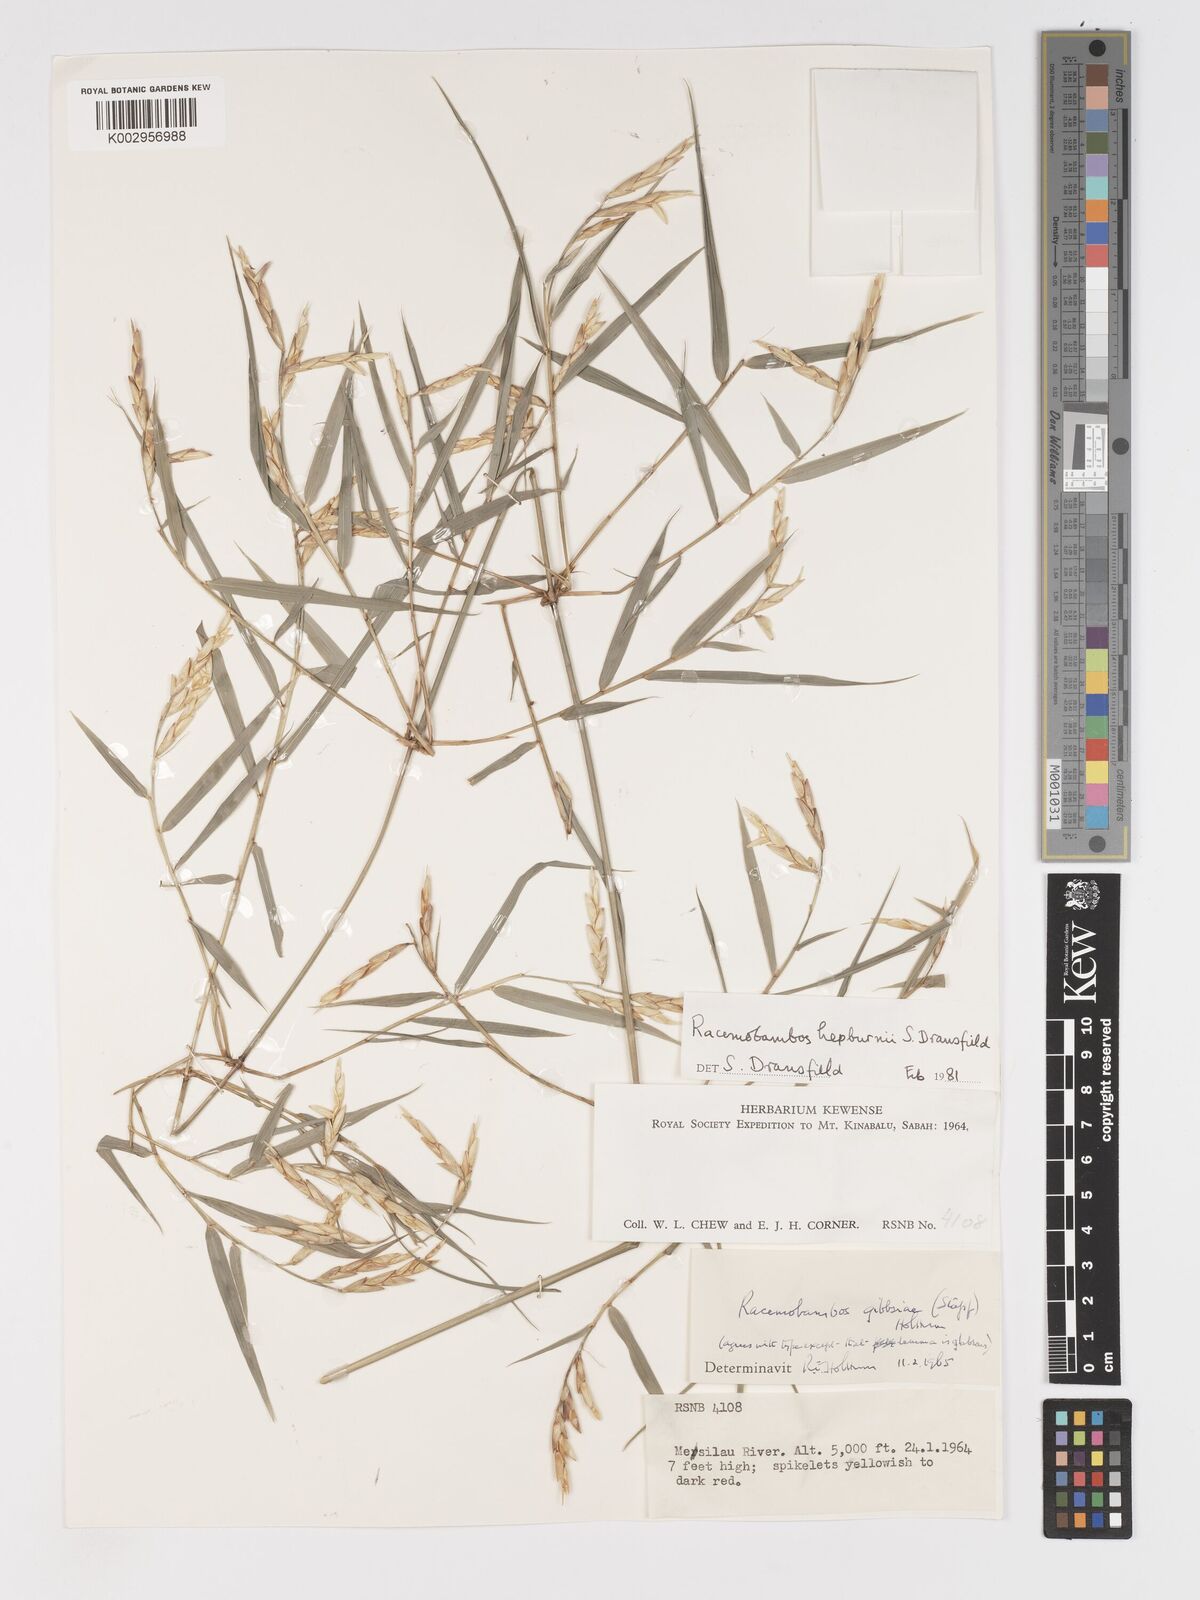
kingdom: Plantae
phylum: Tracheophyta
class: Liliopsida
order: Poales
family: Poaceae
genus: Racemobambos
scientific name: Racemobambos hepburnii
